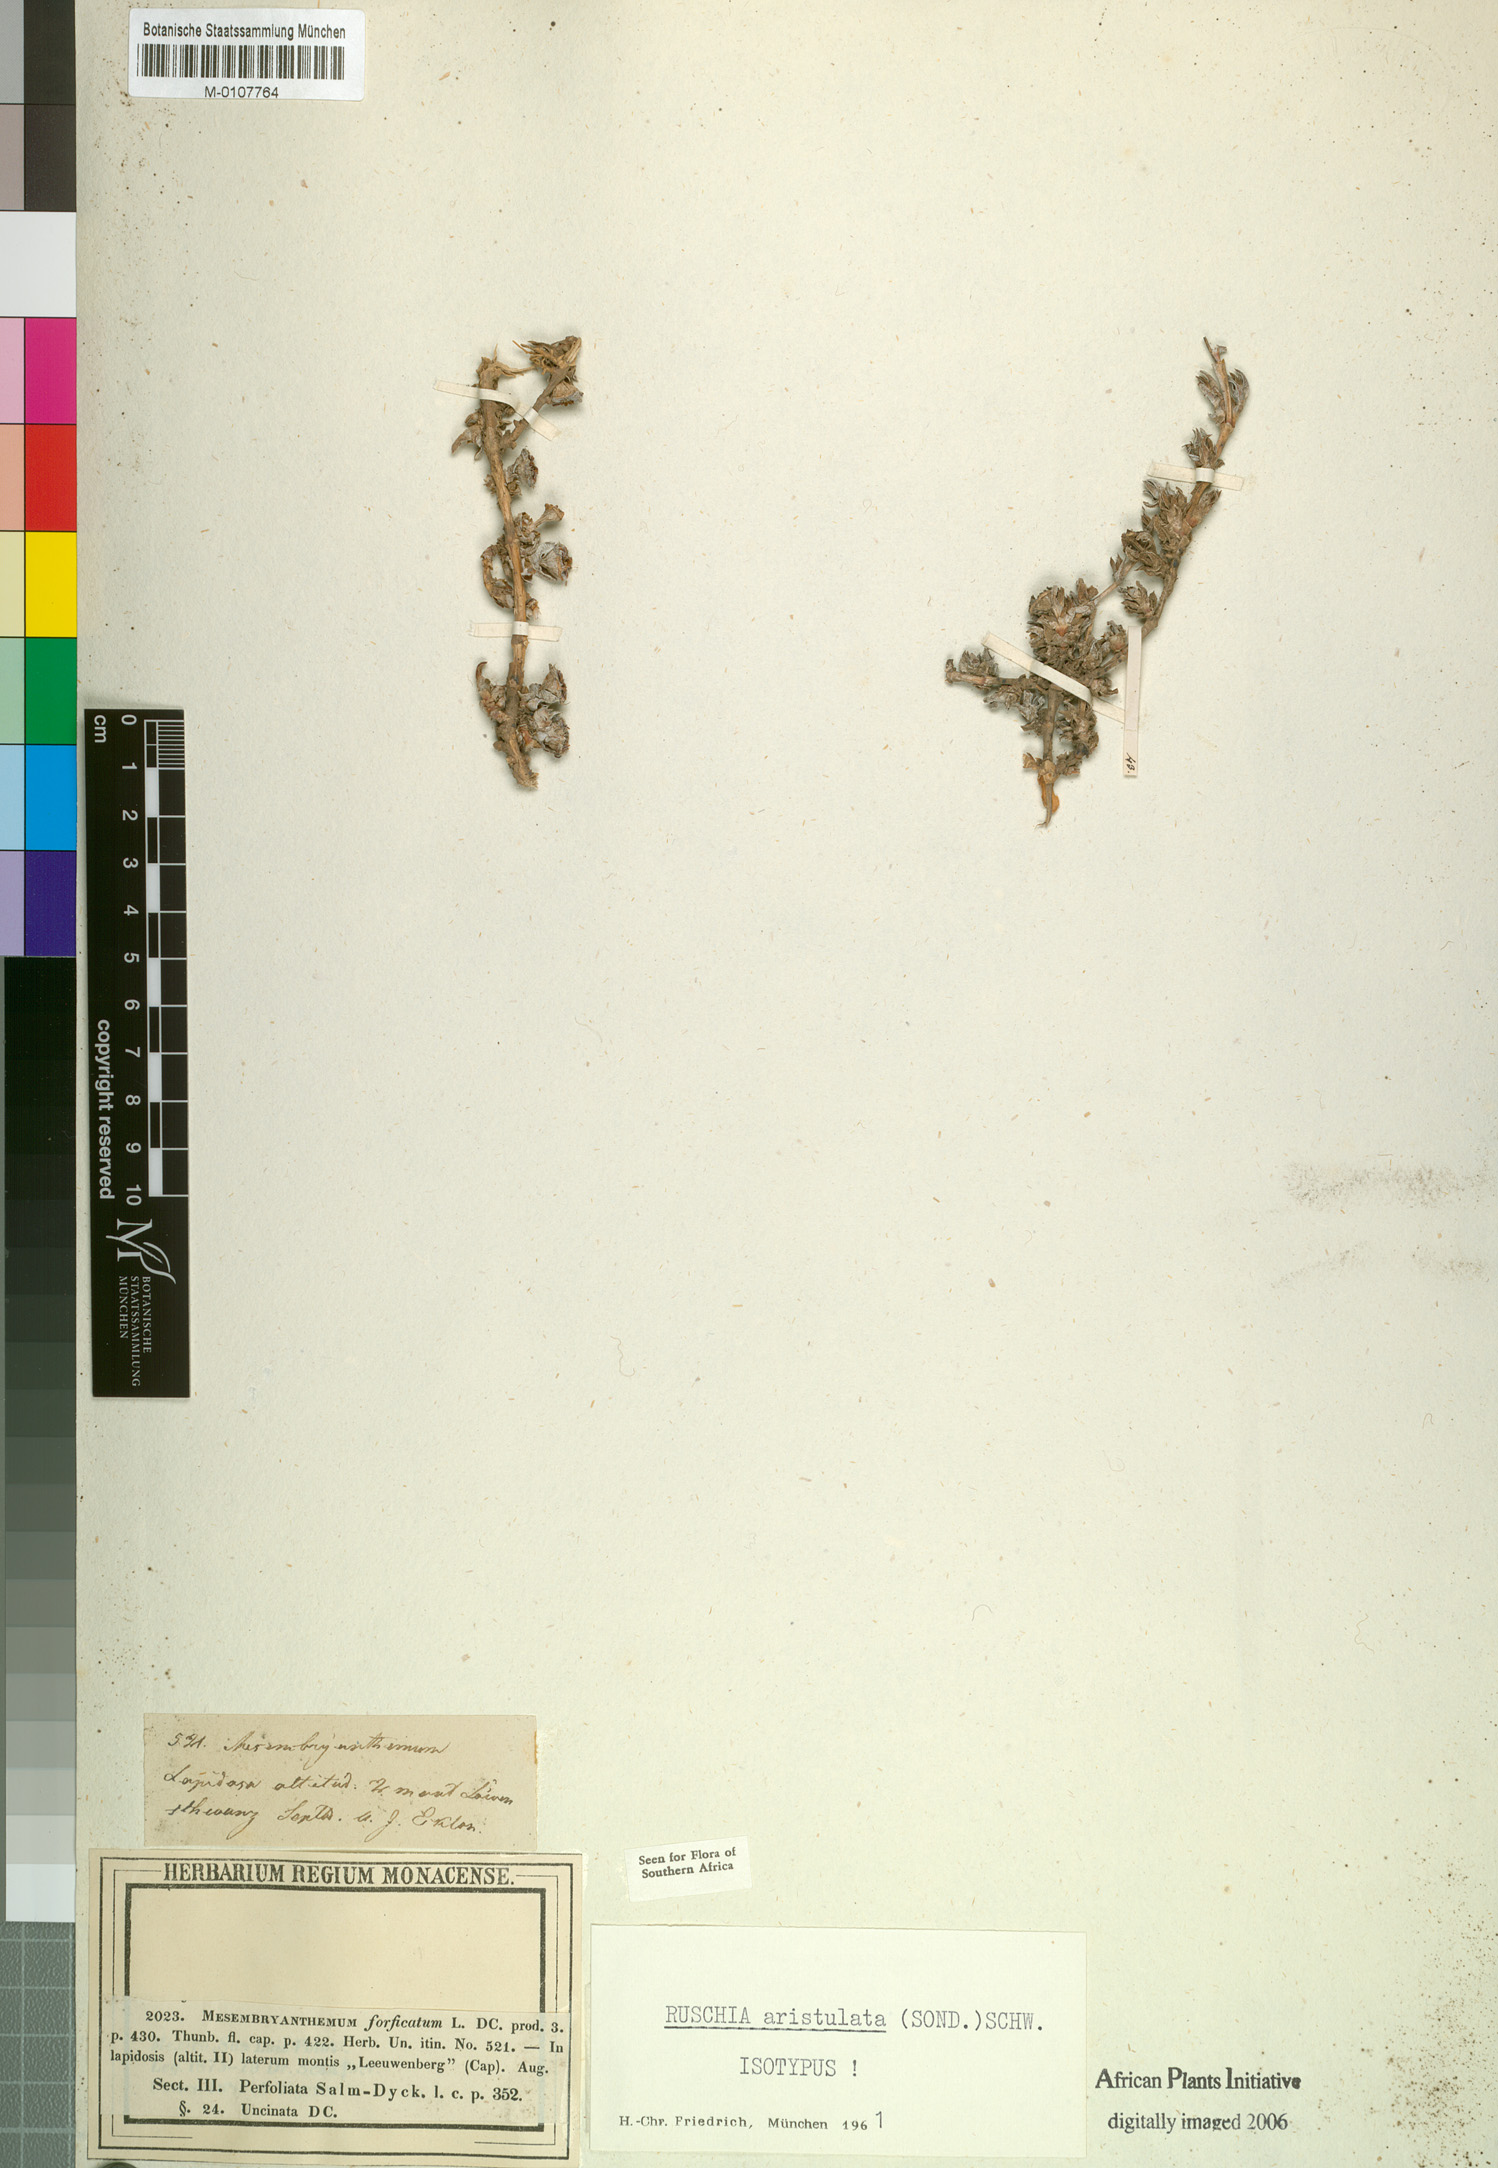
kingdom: Plantae
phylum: Tracheophyta
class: Magnoliopsida
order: Caryophyllales
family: Aizoaceae
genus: Antimima
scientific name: Antimima aristulata
